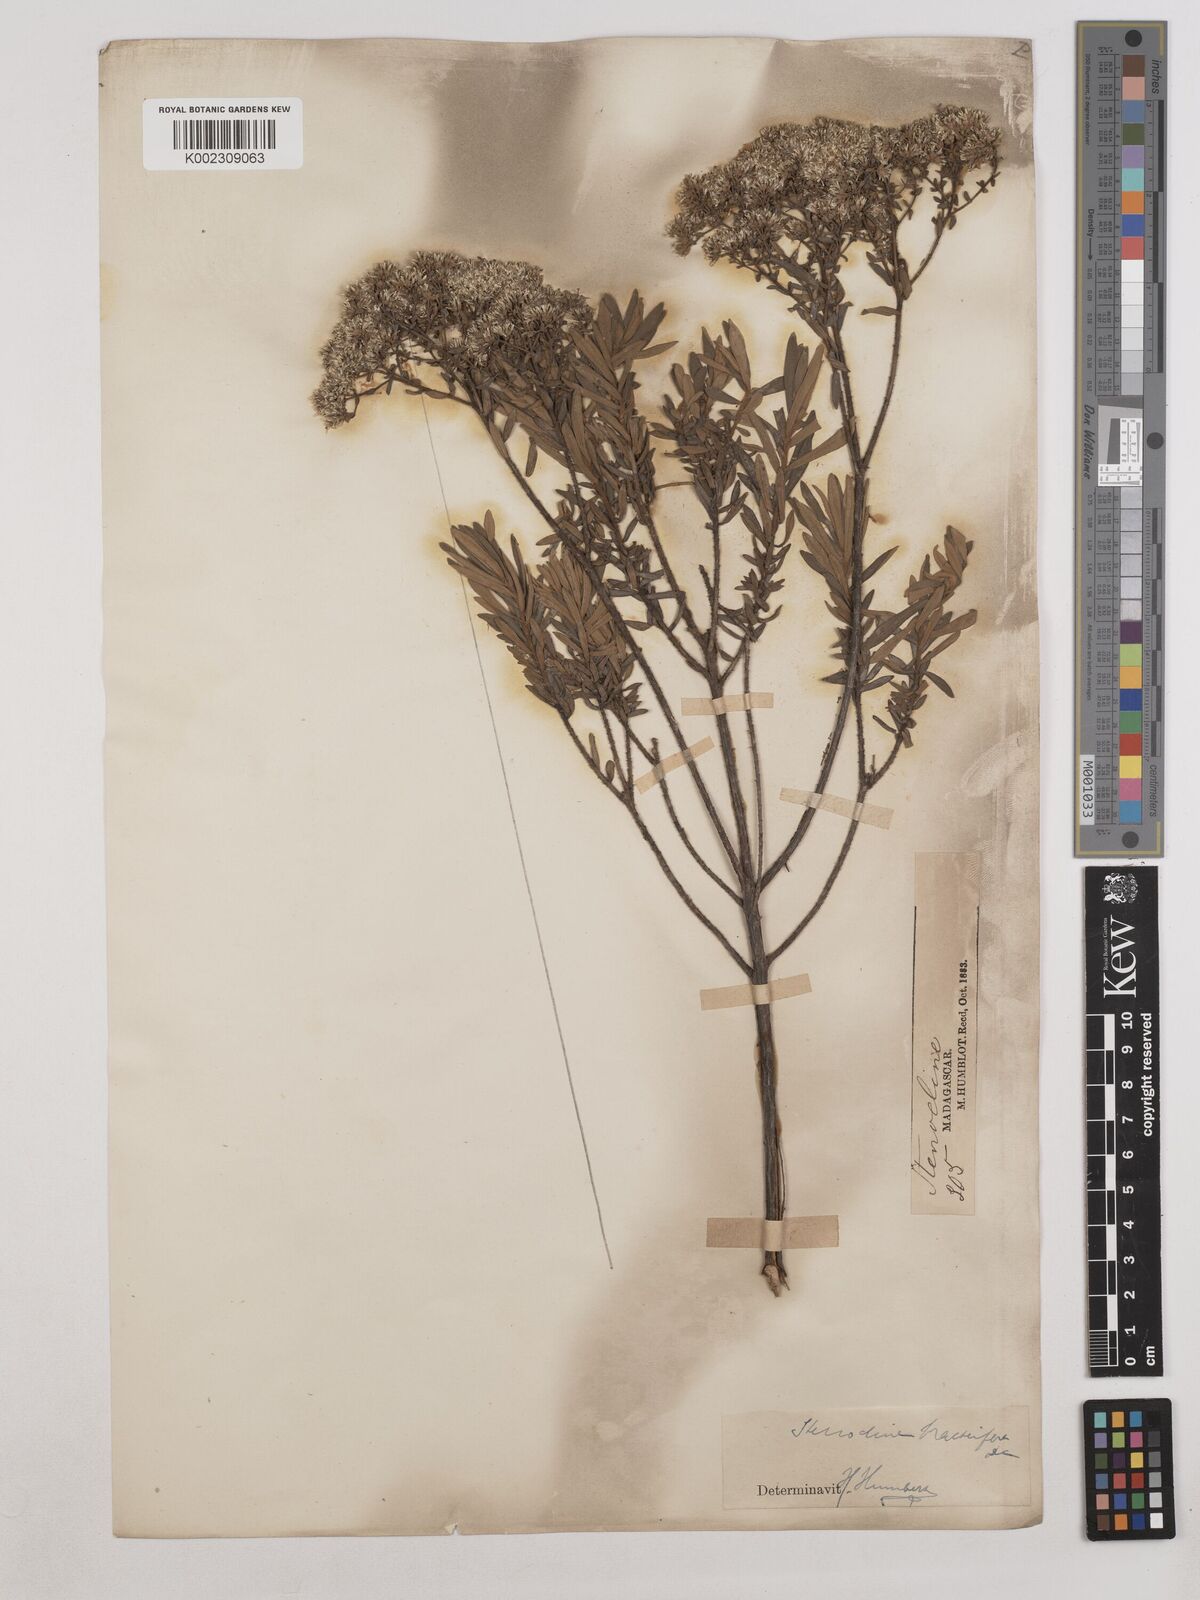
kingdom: Plantae
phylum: Tracheophyta
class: Magnoliopsida
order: Asterales
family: Asteraceae
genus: Helichrysum
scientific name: Helichrysum gymnocephalum
